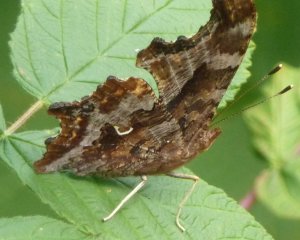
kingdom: Animalia
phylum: Arthropoda
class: Insecta
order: Lepidoptera
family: Nymphalidae
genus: Polygonia
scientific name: Polygonia comma
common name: Eastern Comma
